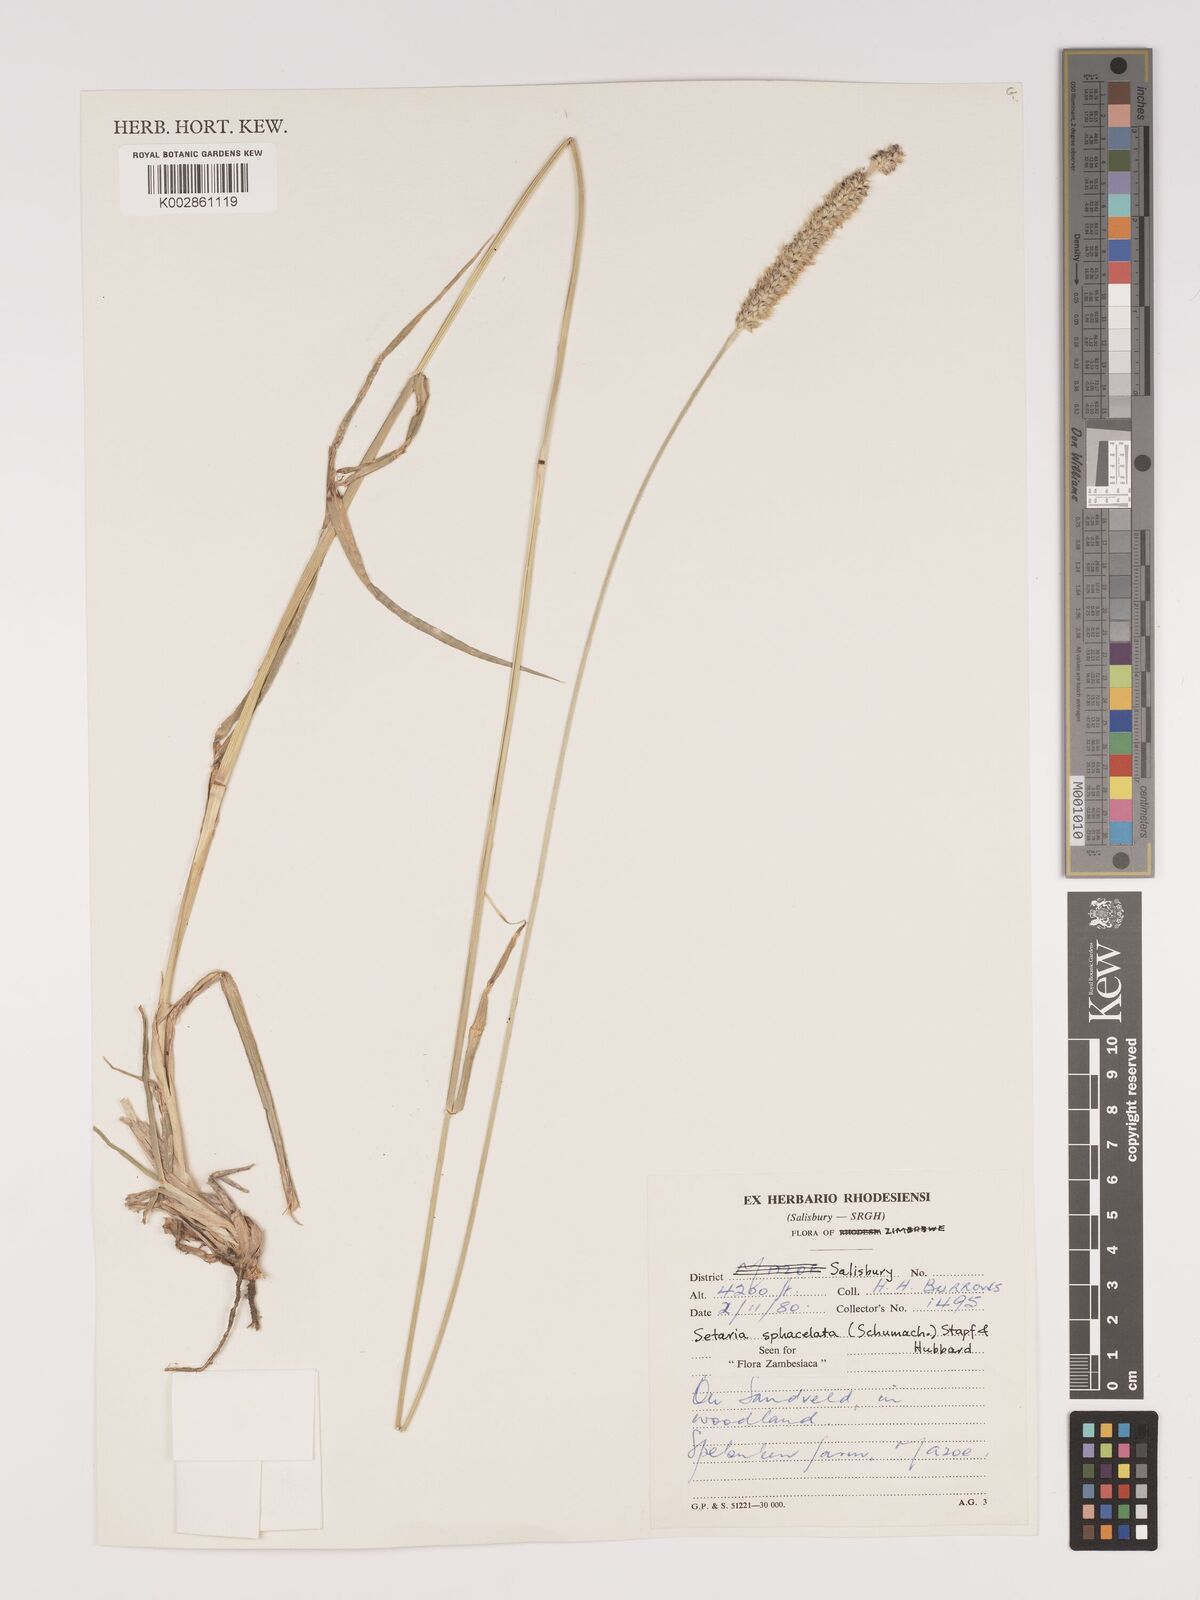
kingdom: Plantae
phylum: Tracheophyta
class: Liliopsida
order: Poales
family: Poaceae
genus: Setaria
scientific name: Setaria sphacelata
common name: African bristlegrass
